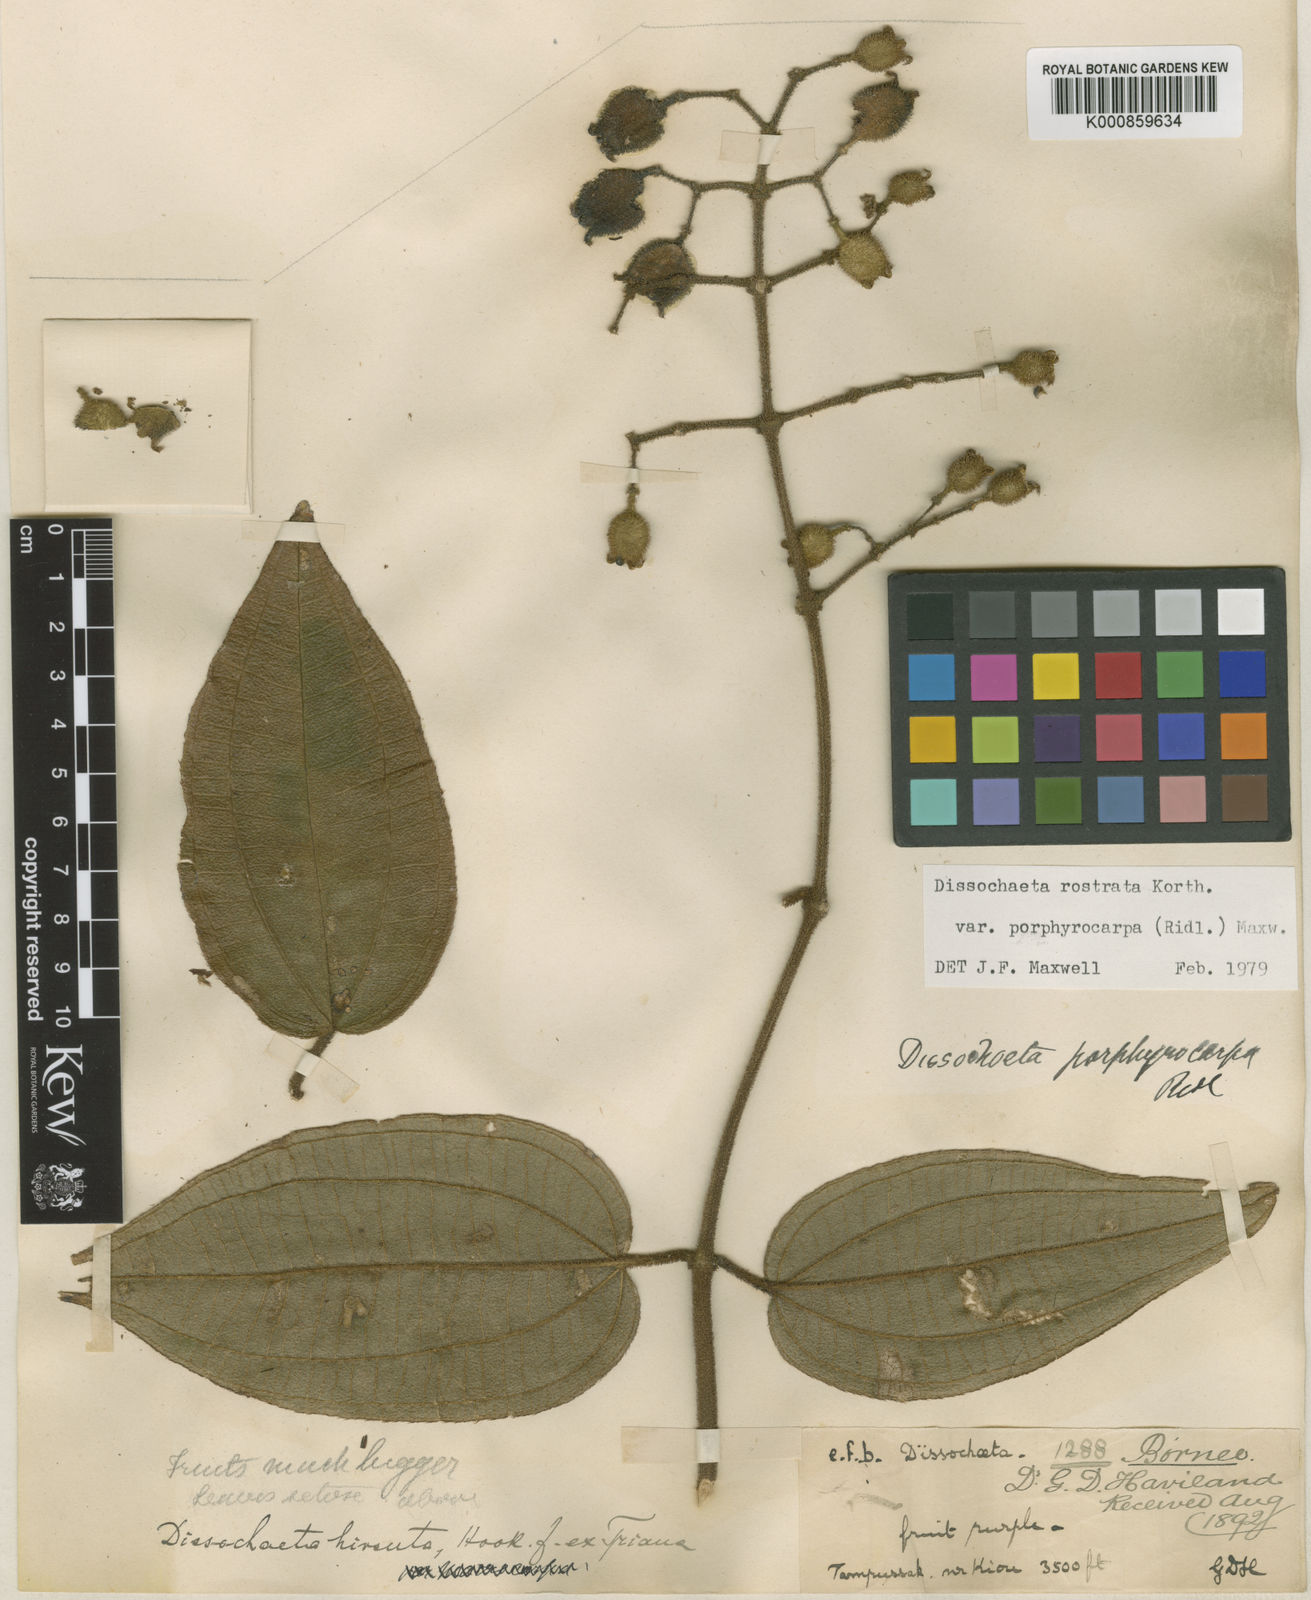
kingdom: Plantae
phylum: Tracheophyta
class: Magnoliopsida
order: Myrtales
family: Melastomataceae
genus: Macrolenes
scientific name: Macrolenes porphyrocarpa
